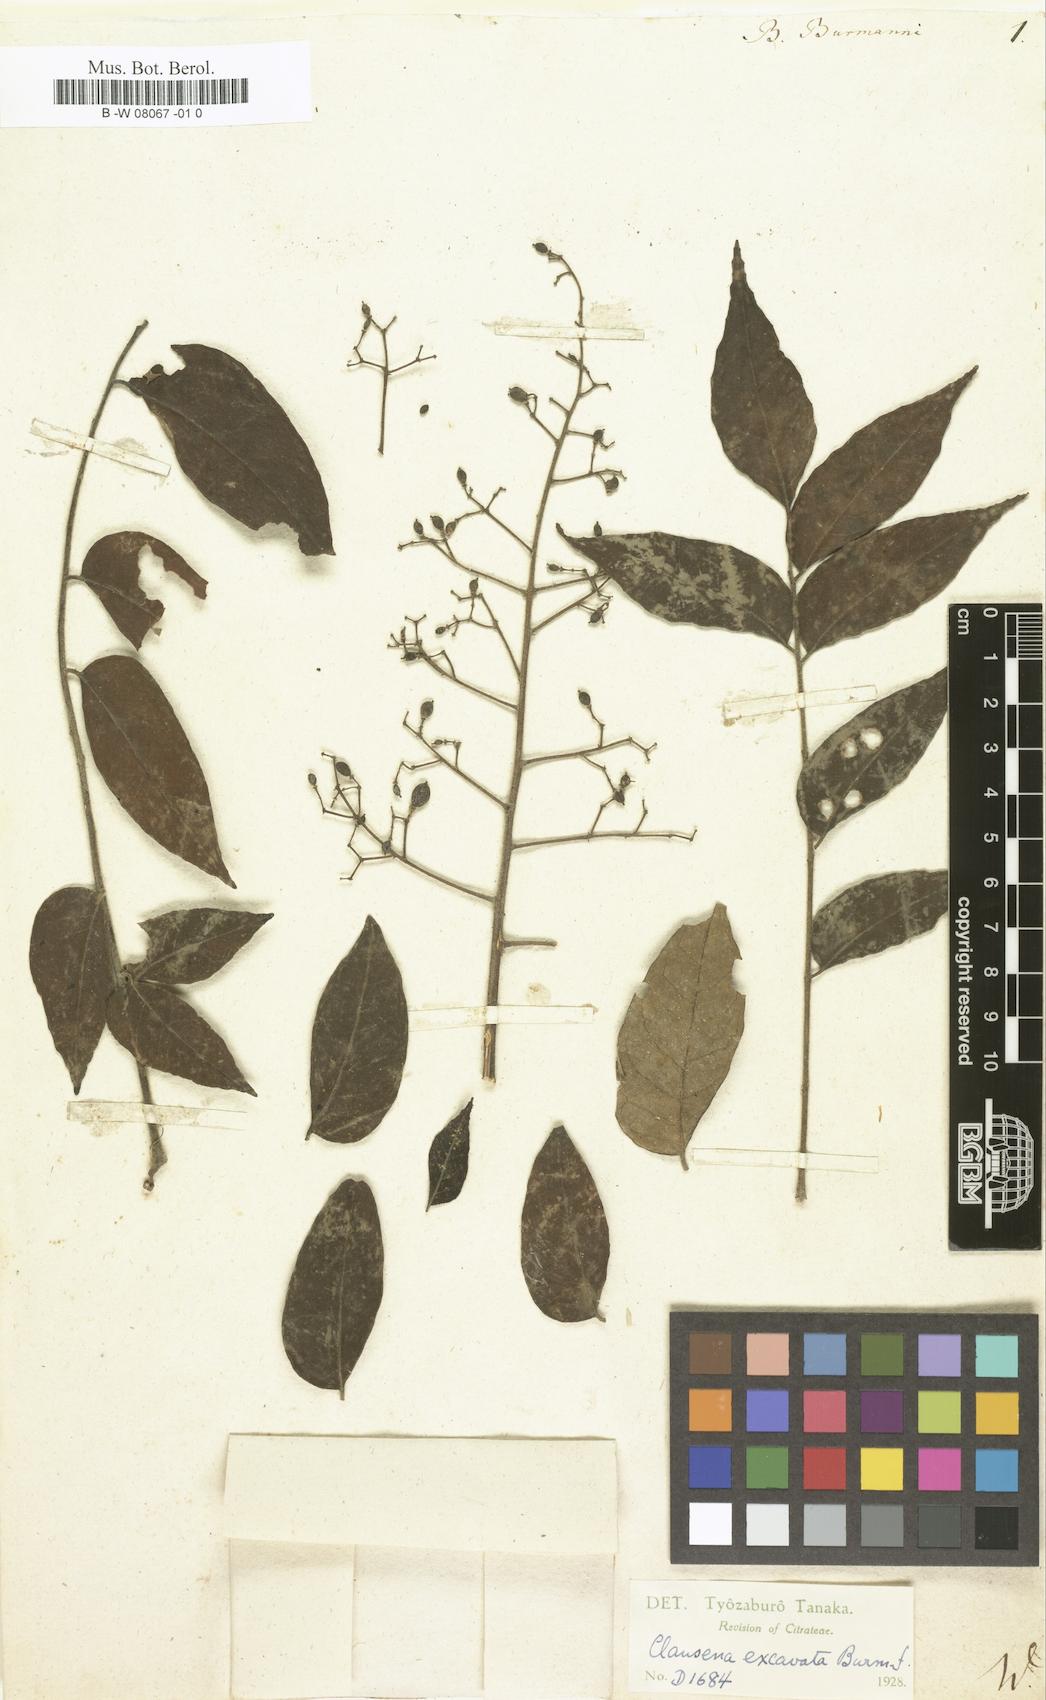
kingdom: Plantae
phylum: Tracheophyta
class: Magnoliopsida
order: Sapindales
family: Rutaceae
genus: Bergera
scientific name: Bergera
